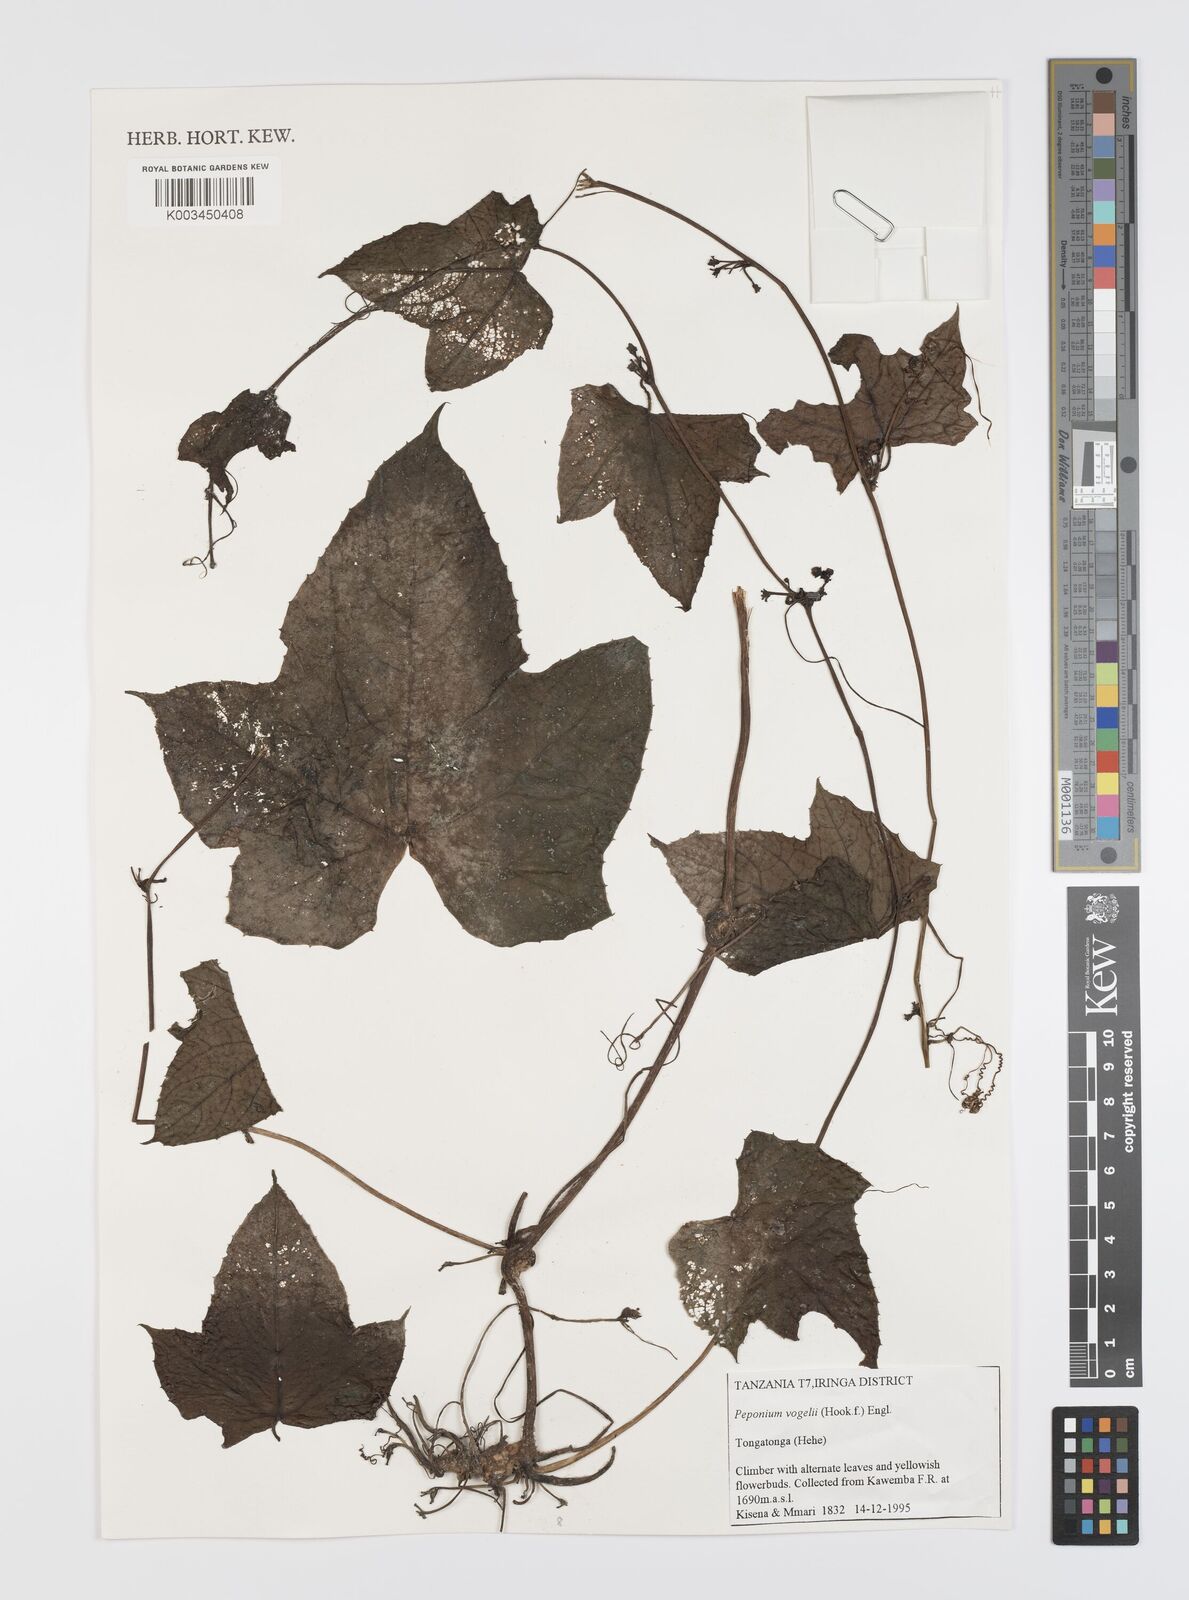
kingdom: Plantae
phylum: Tracheophyta
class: Magnoliopsida
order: Cucurbitales
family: Cucurbitaceae
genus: Peponium
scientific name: Peponium vogelii
